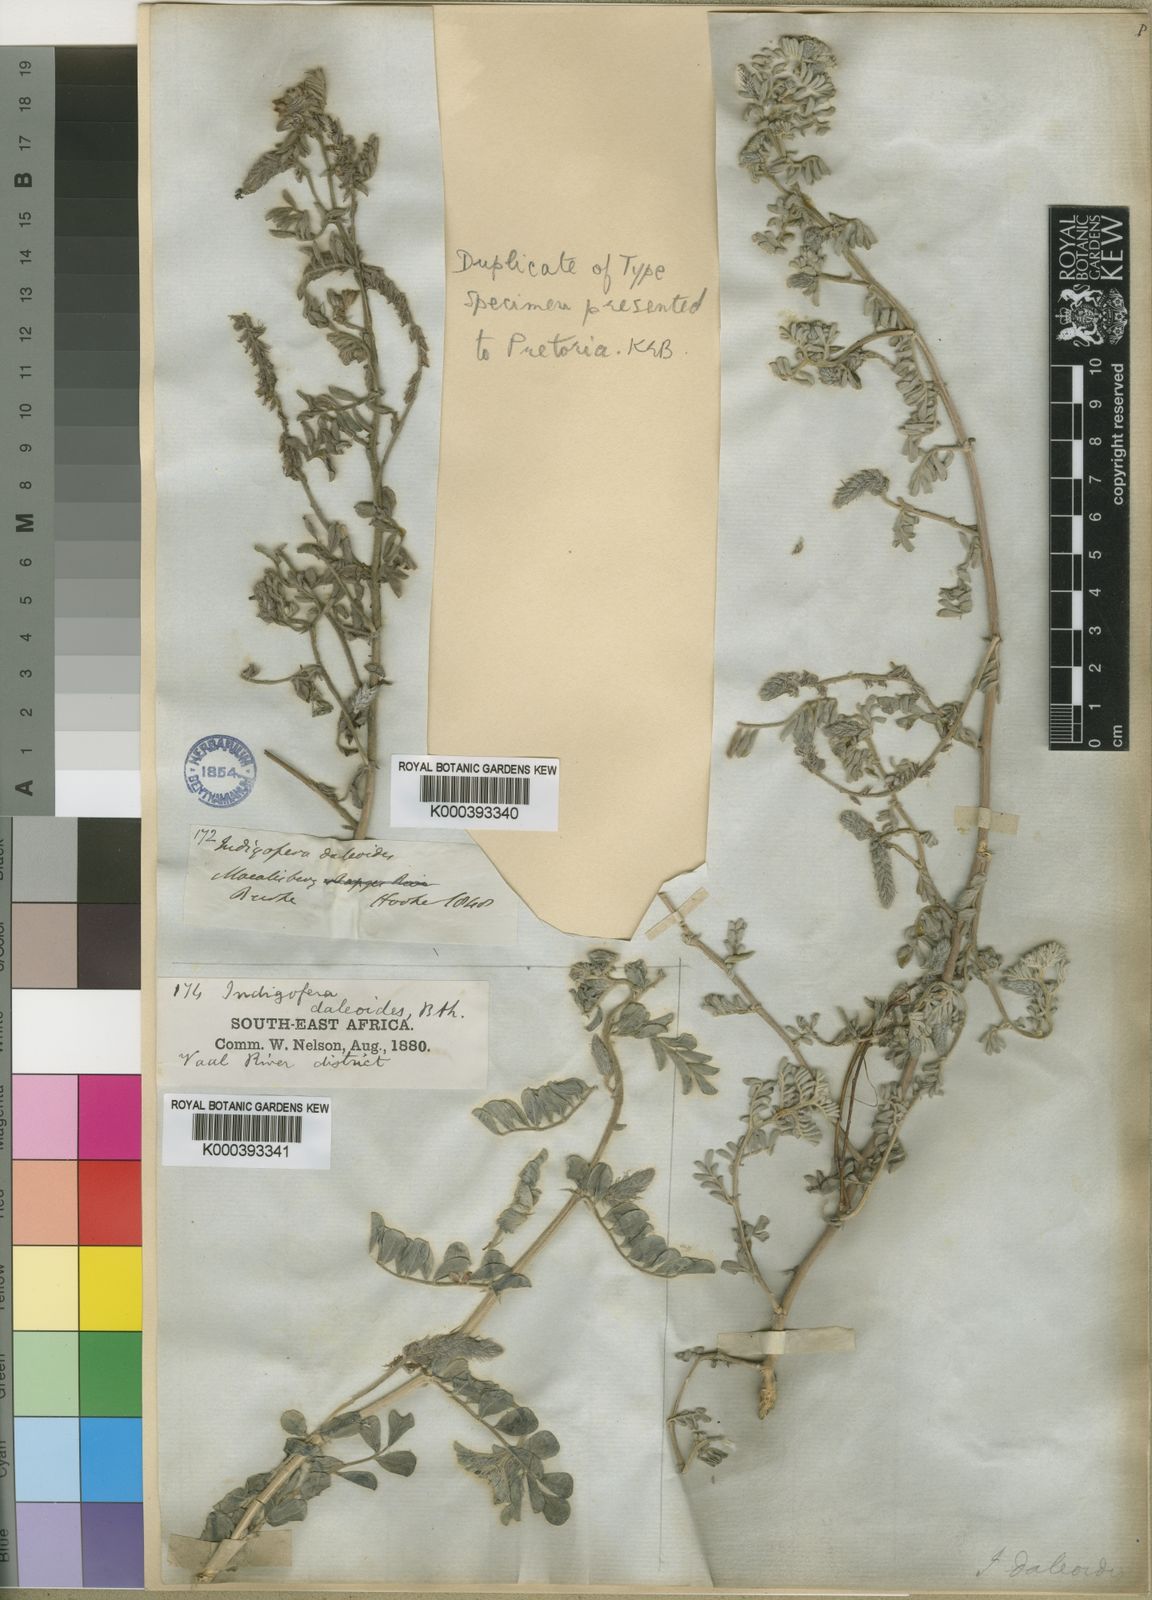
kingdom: Plantae
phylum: Tracheophyta
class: Magnoliopsida
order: Fabales
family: Fabaceae
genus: Indigofera
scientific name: Indigofera daleoides
